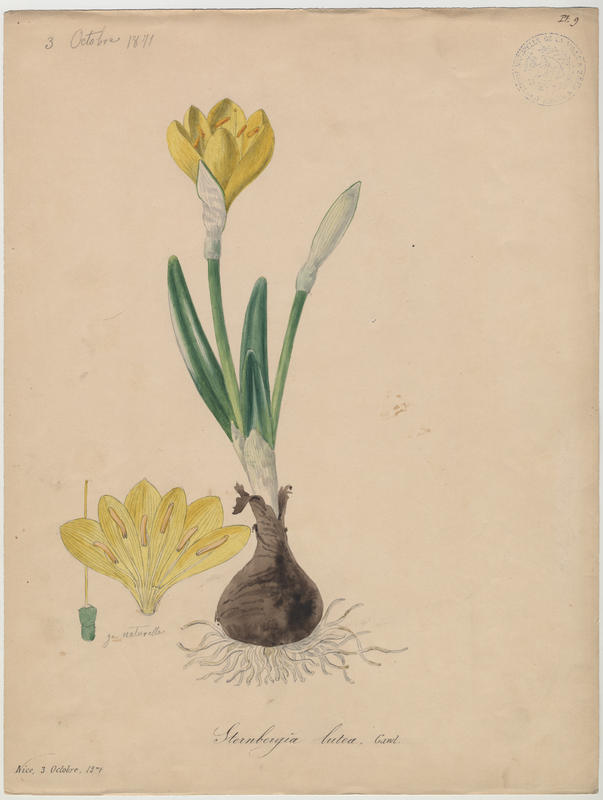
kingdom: Plantae
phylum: Tracheophyta
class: Liliopsida
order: Asparagales
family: Amaryllidaceae
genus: Sternbergia
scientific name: Sternbergia lutea
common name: Winter daffodil
